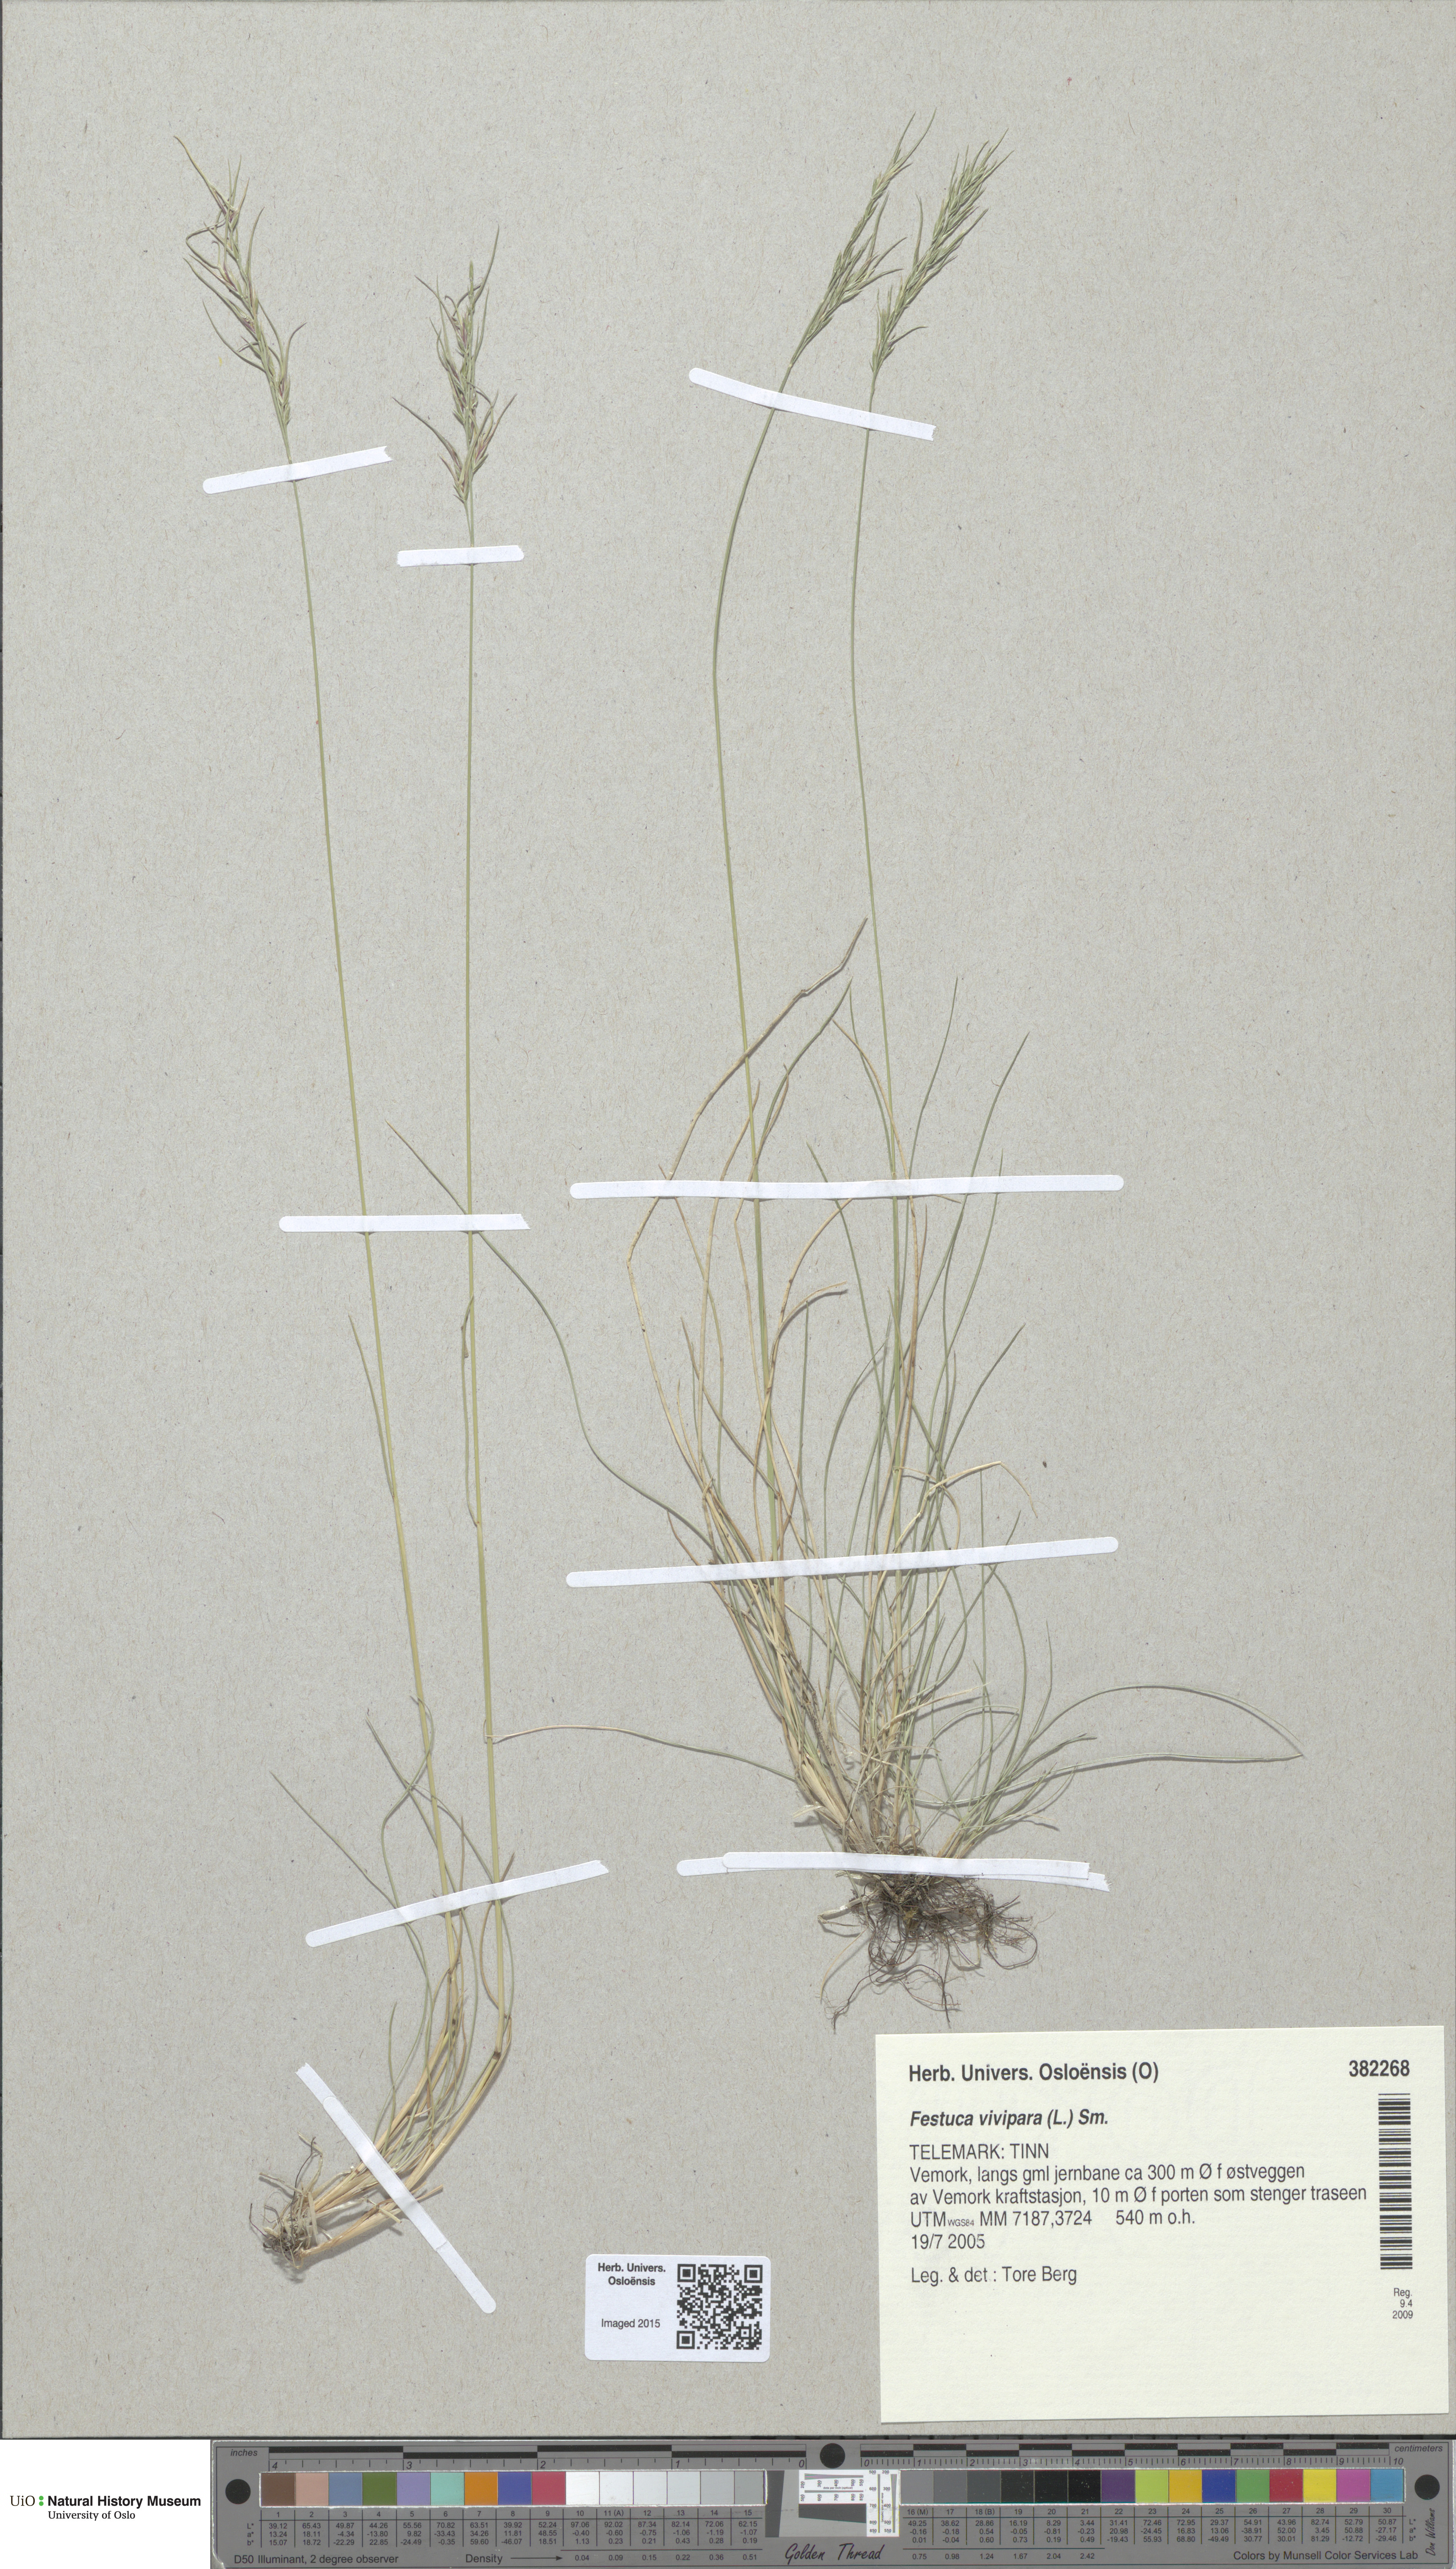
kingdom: Plantae
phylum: Tracheophyta
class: Liliopsida
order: Poales
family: Poaceae
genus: Festuca
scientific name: Festuca vivipara
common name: Viviparous sheep's-fescue
